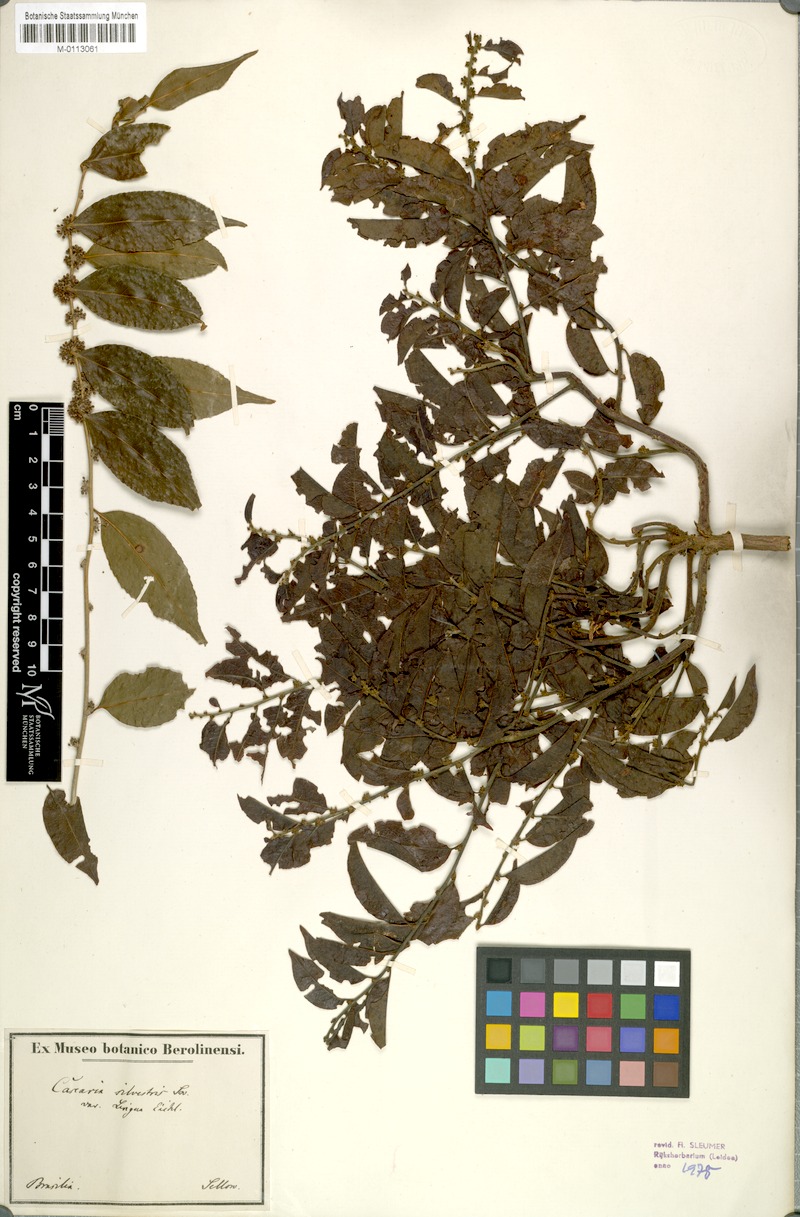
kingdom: Plantae
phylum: Tracheophyta
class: Magnoliopsida
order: Malpighiales
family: Salicaceae
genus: Casearia
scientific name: Casearia sylvestris
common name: Wild sage
